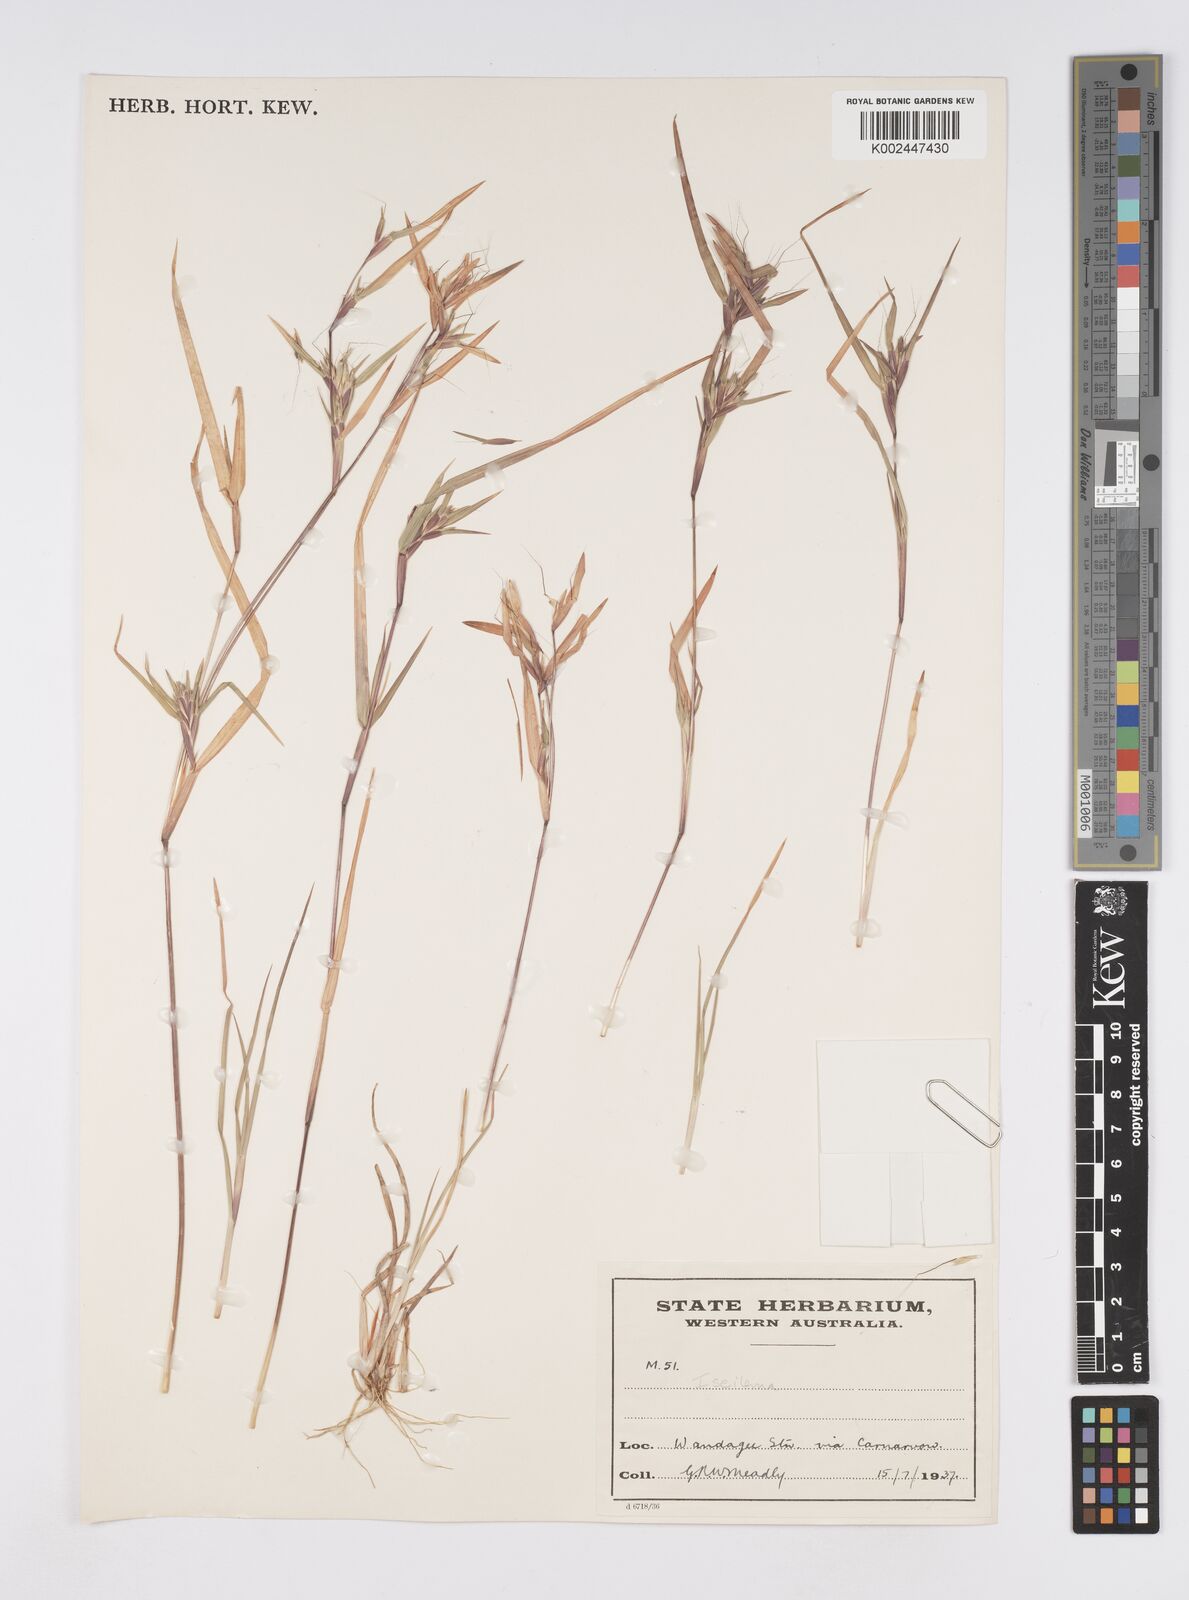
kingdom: Plantae
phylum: Tracheophyta
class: Liliopsida
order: Poales
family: Poaceae
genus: Iseilema
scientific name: Iseilema
